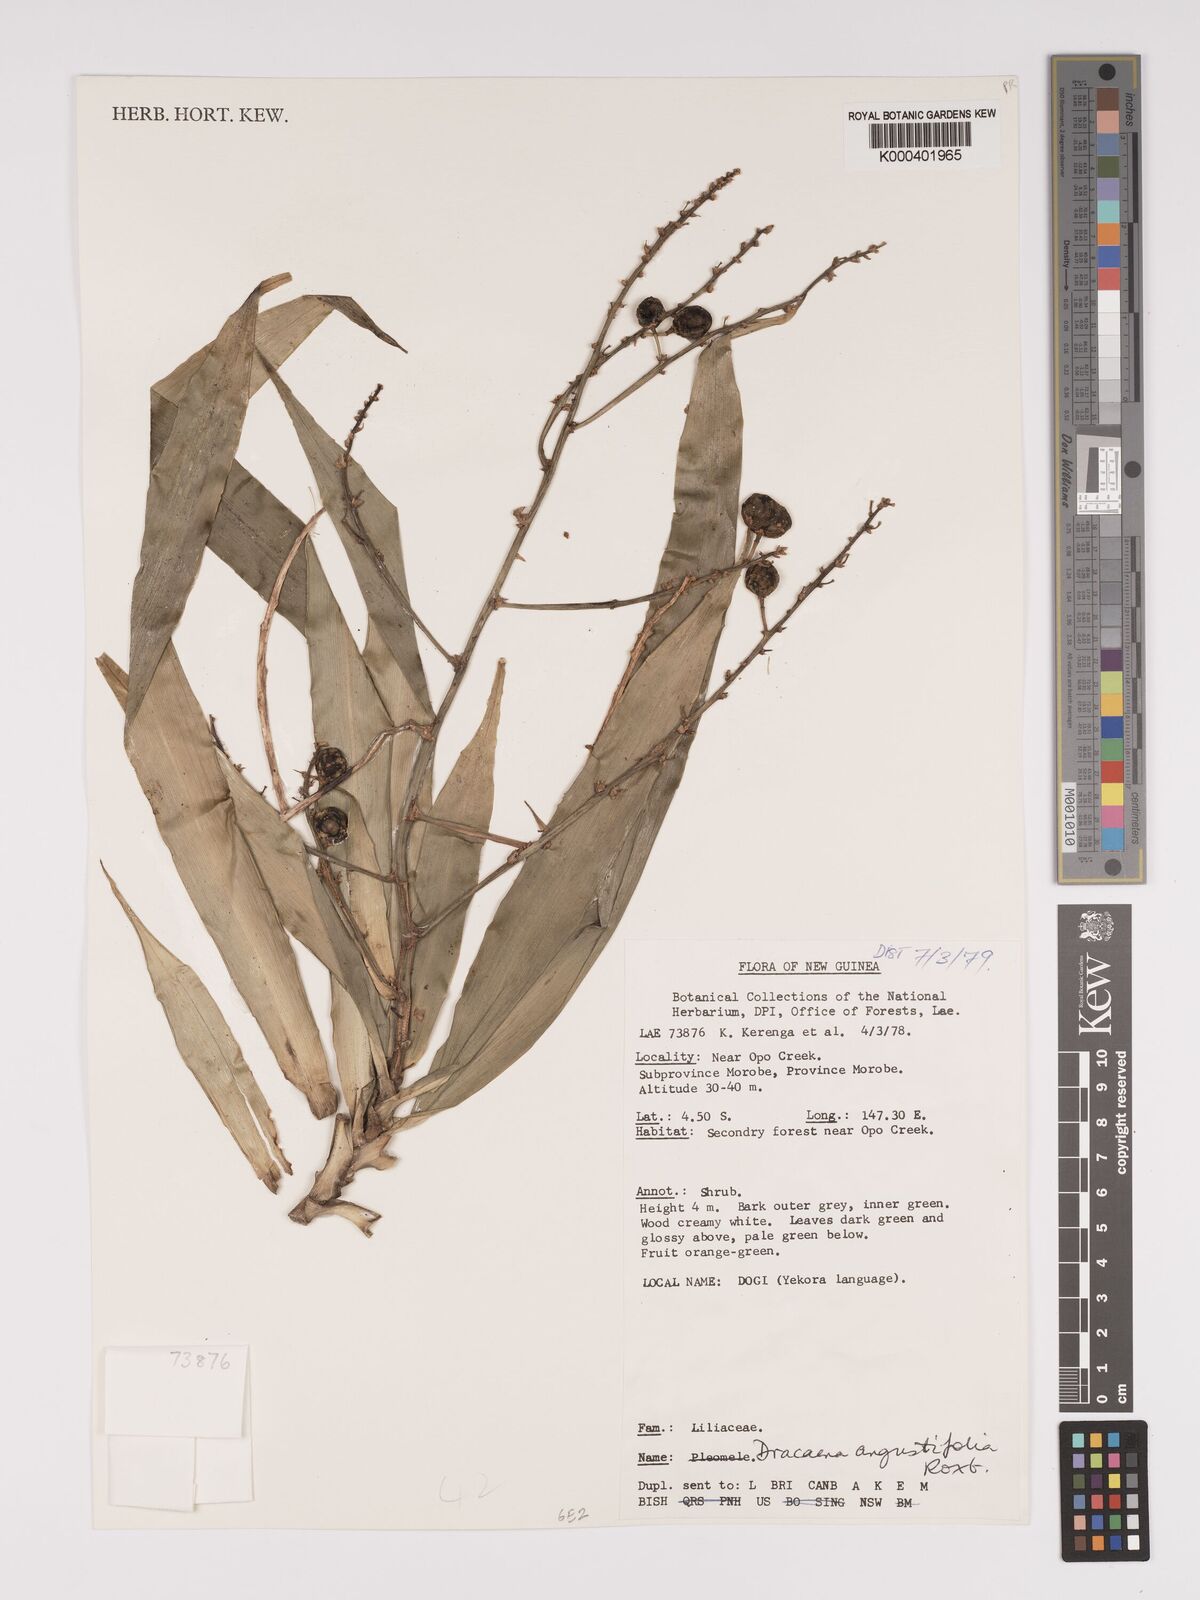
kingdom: Plantae
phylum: Tracheophyta
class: Liliopsida
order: Asparagales
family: Asparagaceae
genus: Dracaena
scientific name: Dracaena angustifolia
